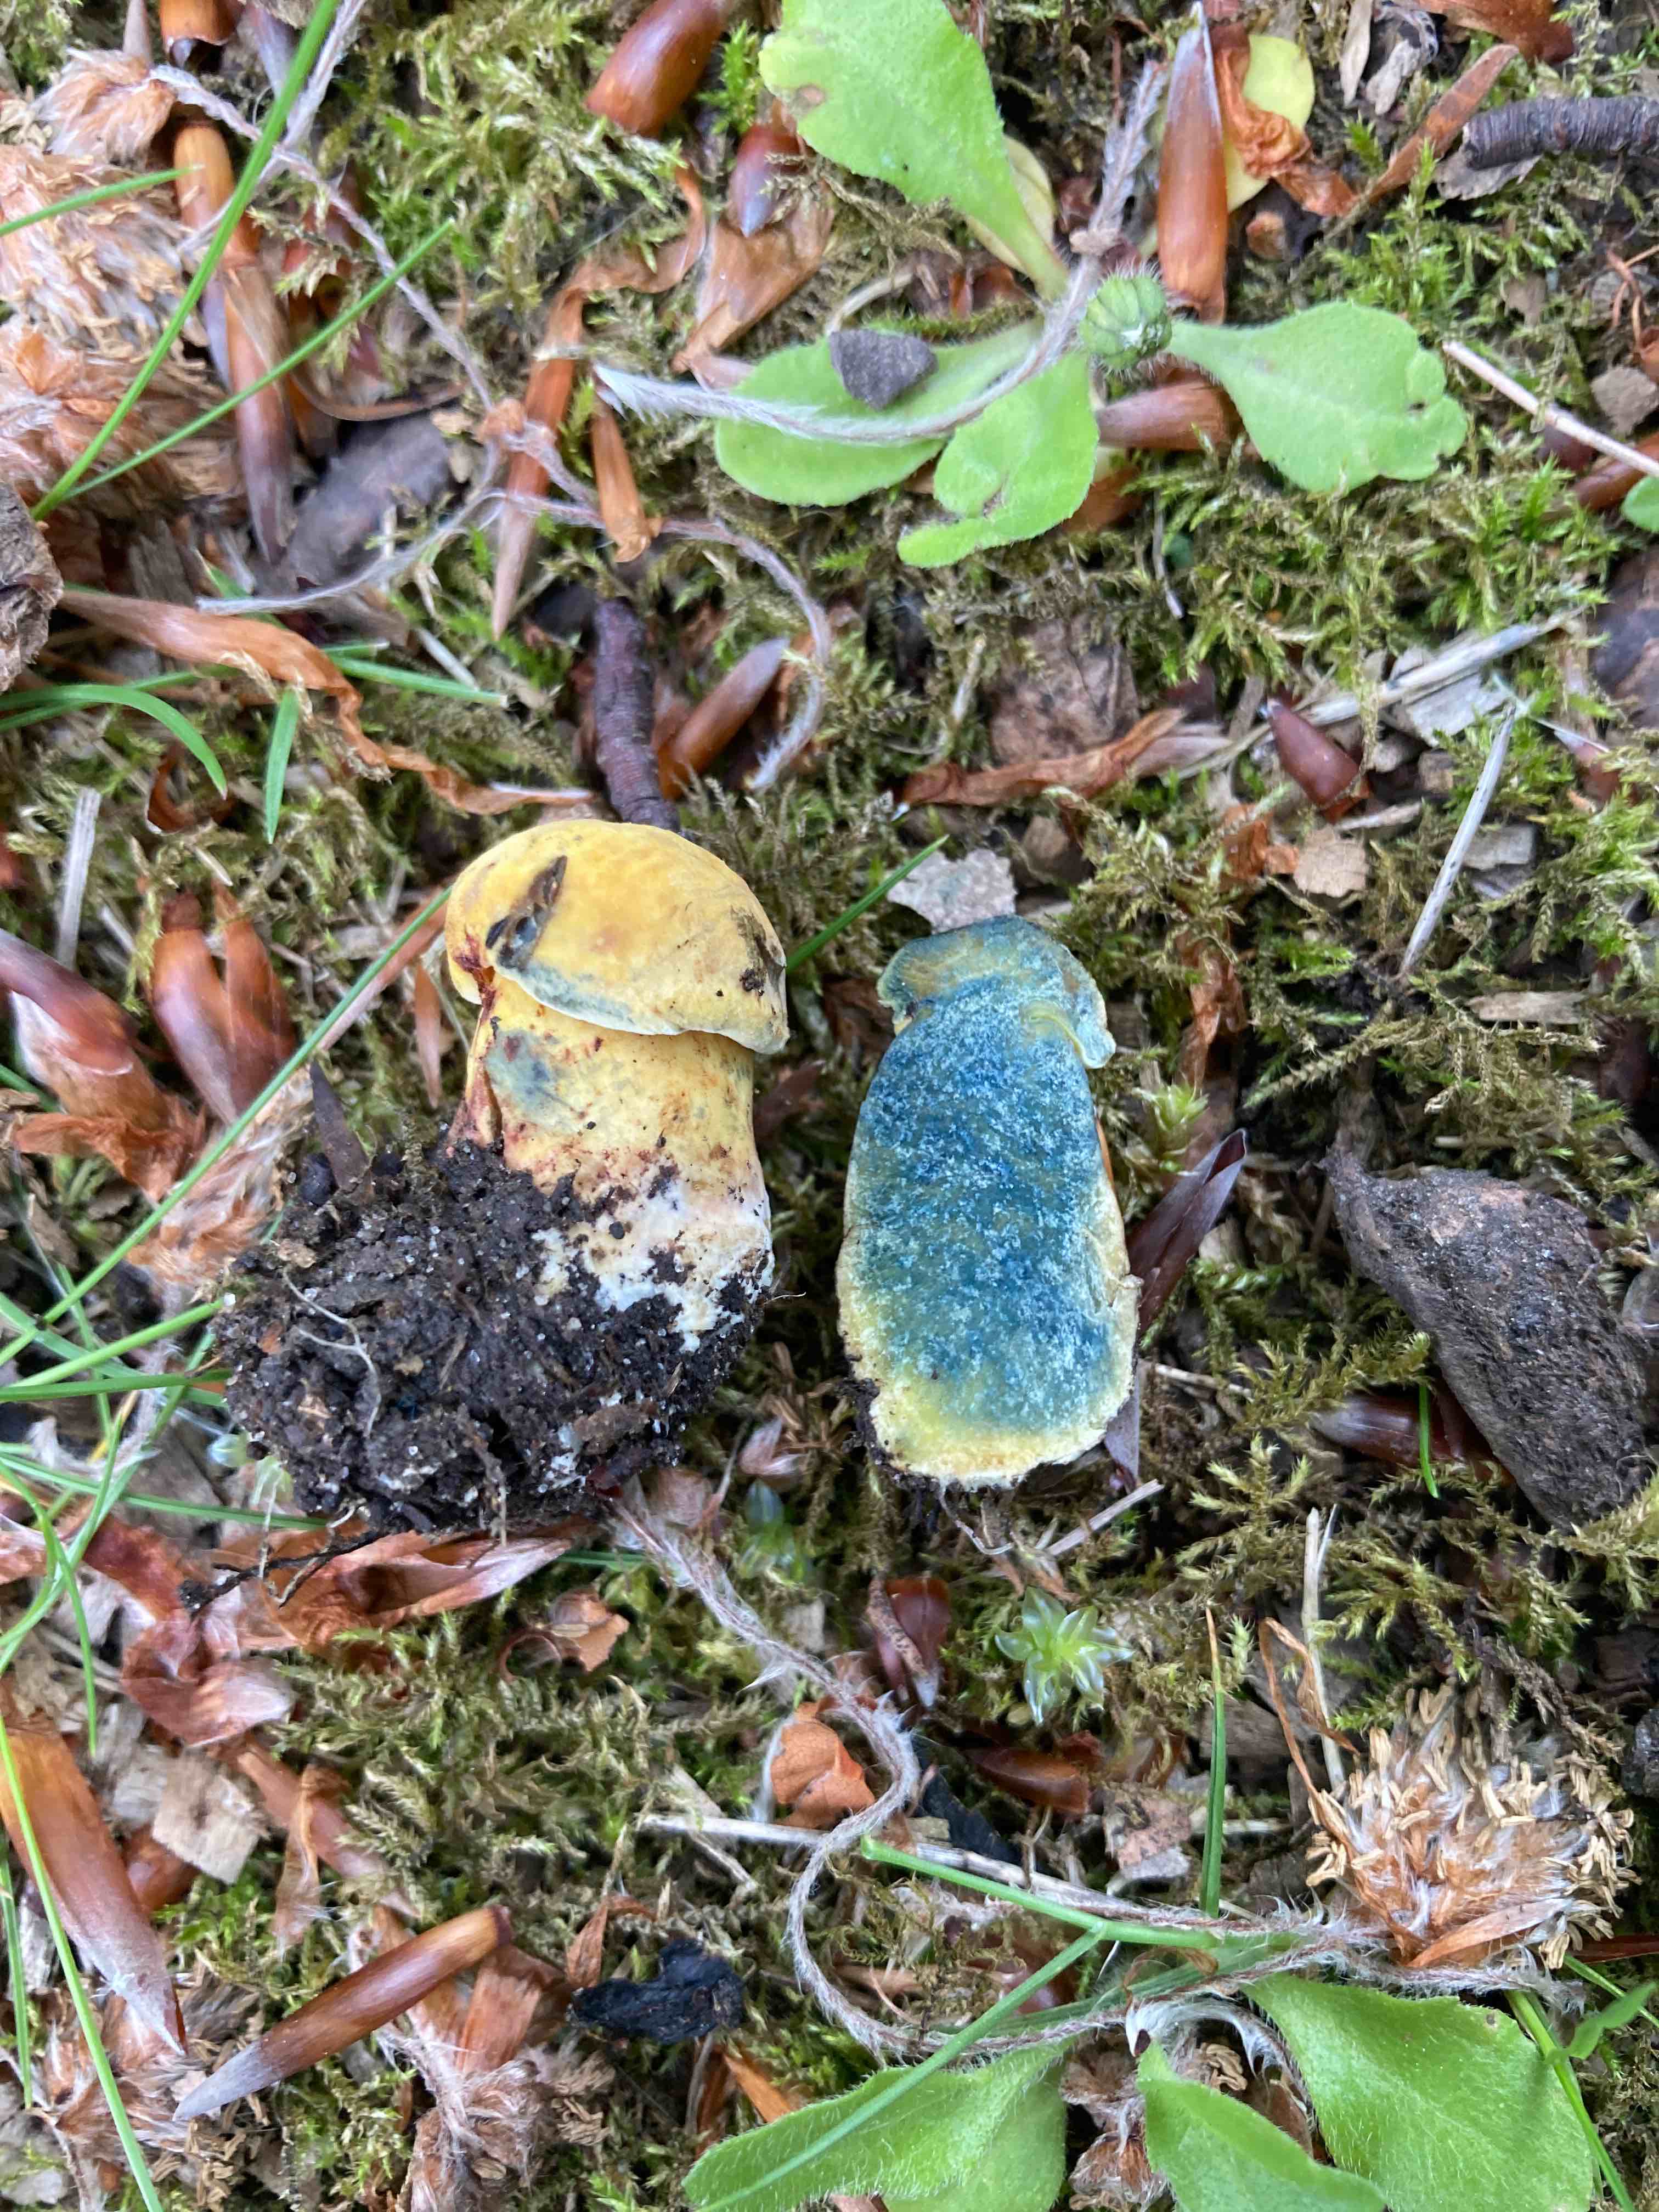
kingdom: Fungi
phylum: Basidiomycota
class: Agaricomycetes
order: Boletales
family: Boletaceae
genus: Neoboletus
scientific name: Neoboletus praestigiator
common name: gul indigorørhat
